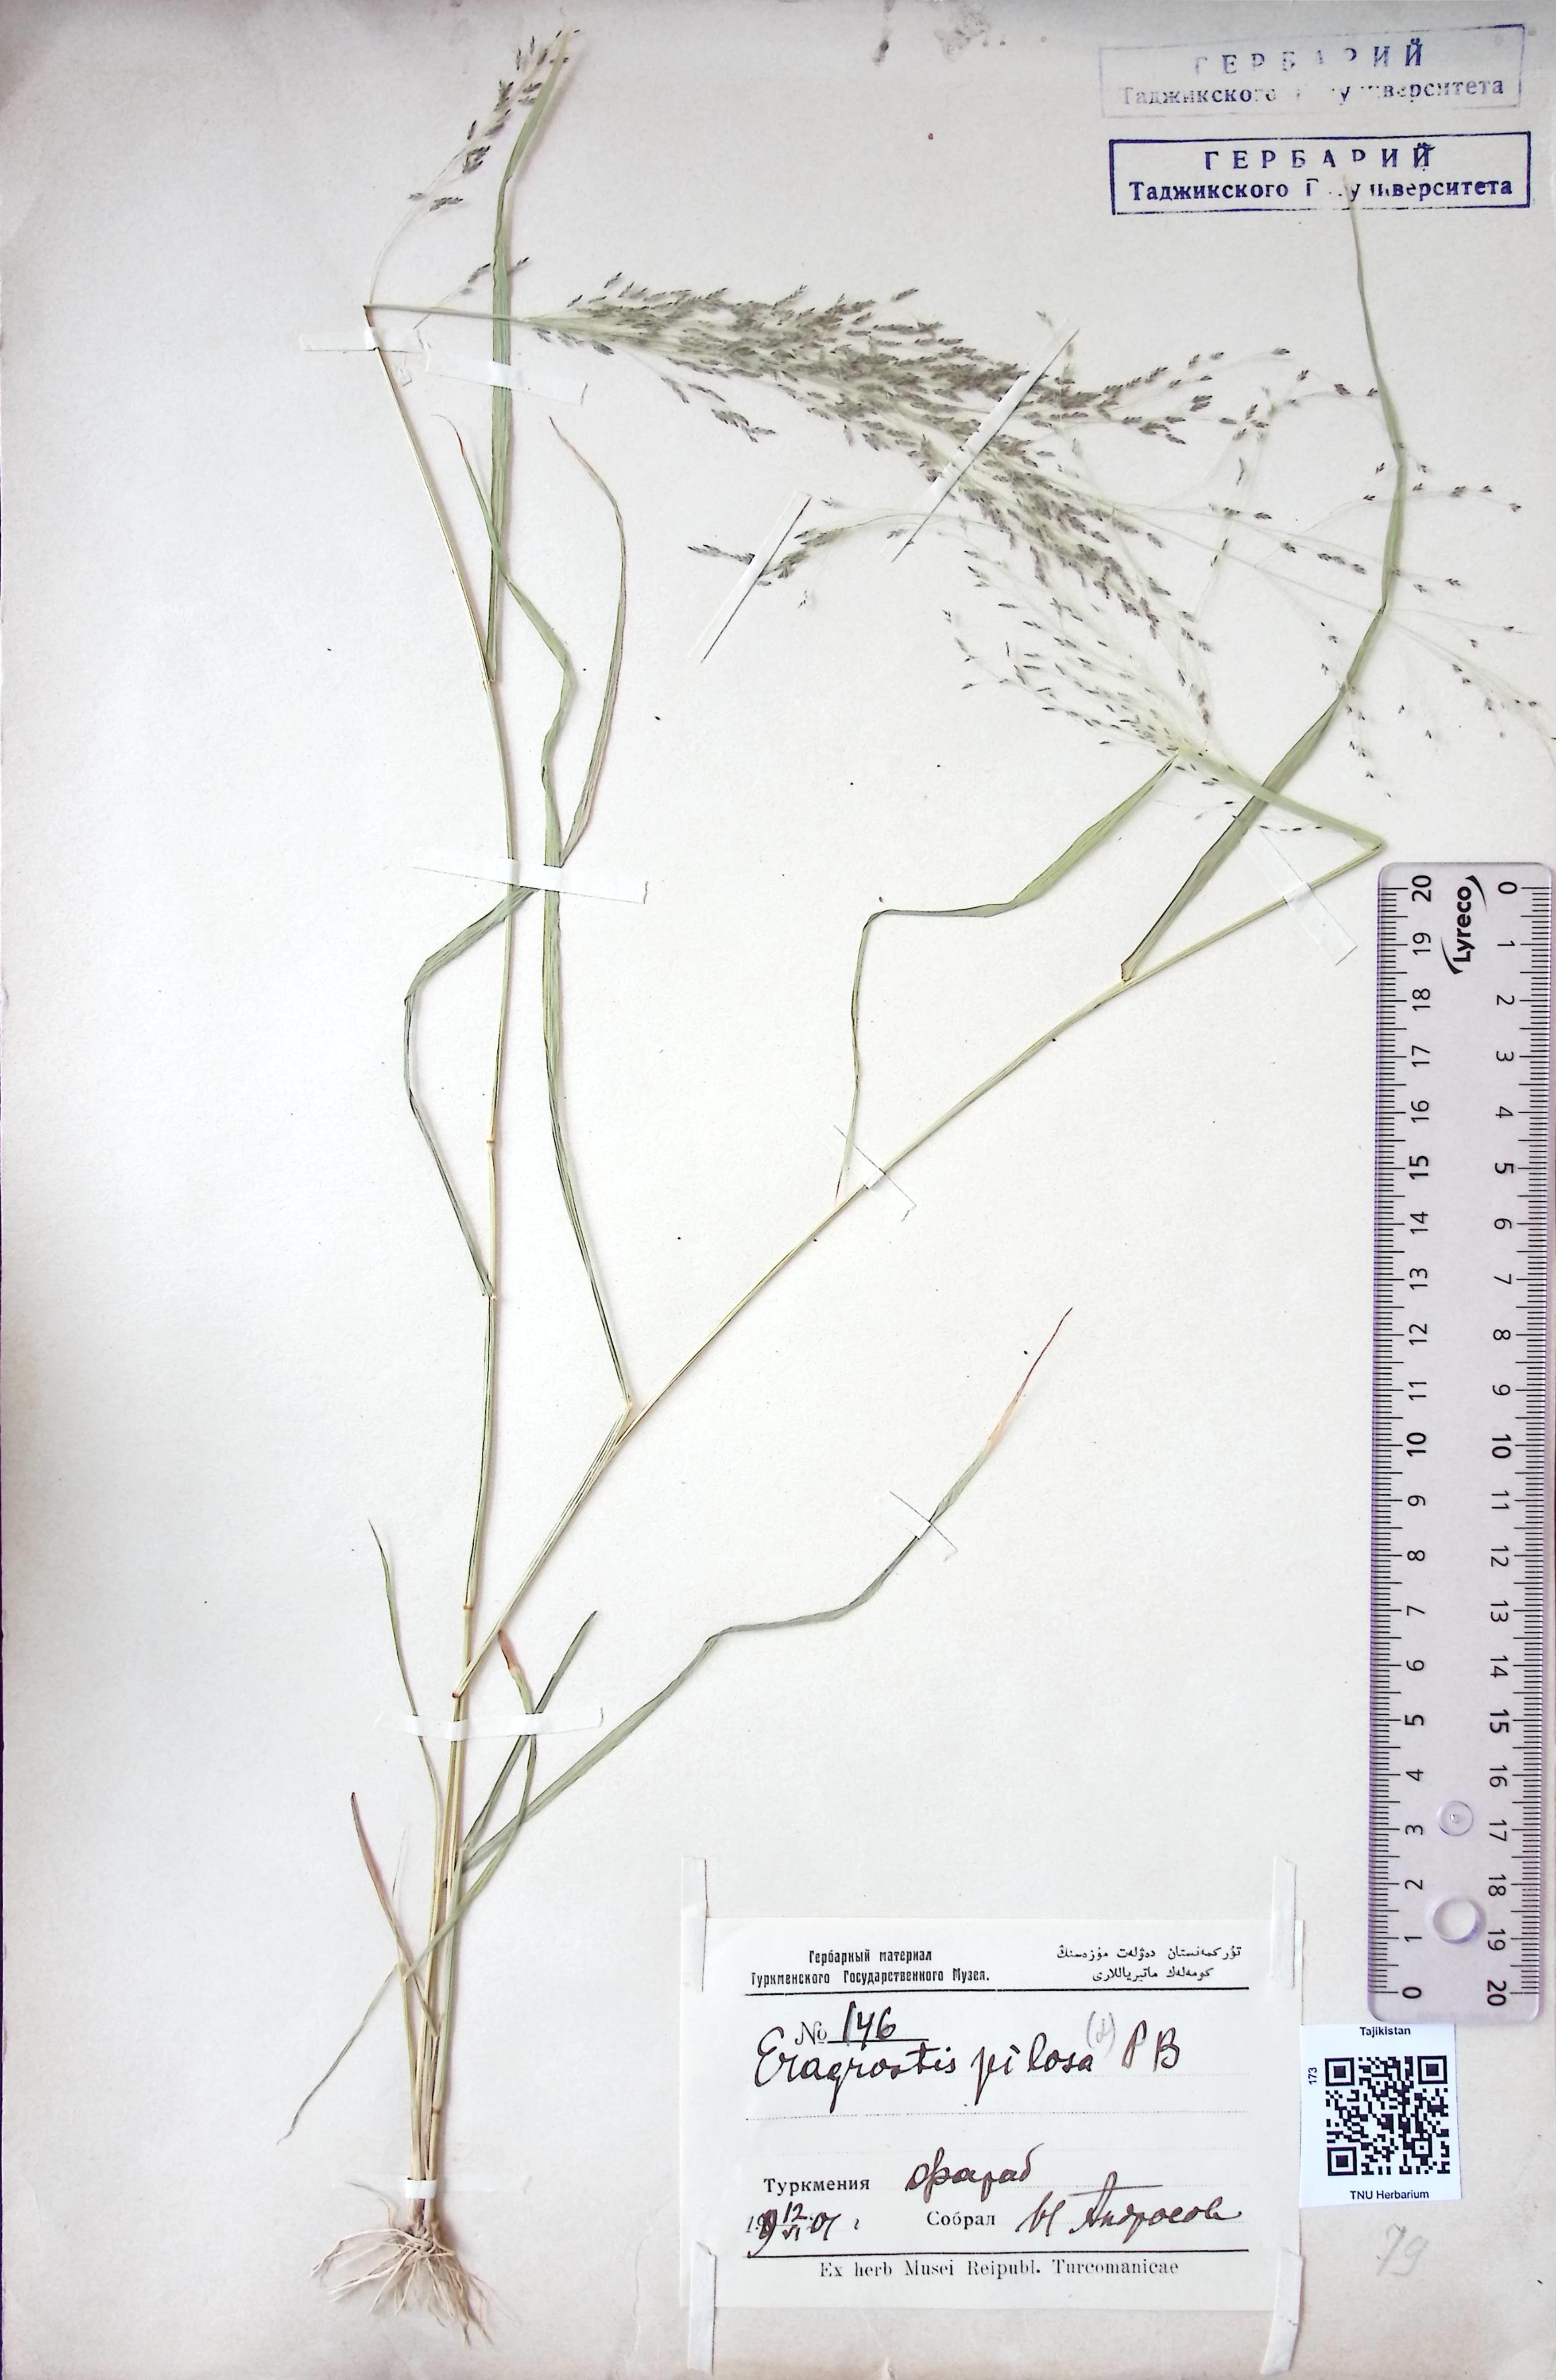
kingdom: Plantae
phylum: Tracheophyta
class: Liliopsida
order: Poales
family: Poaceae
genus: Eragrostis
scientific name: Eragrostis parviflora
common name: Weeping love-grass
